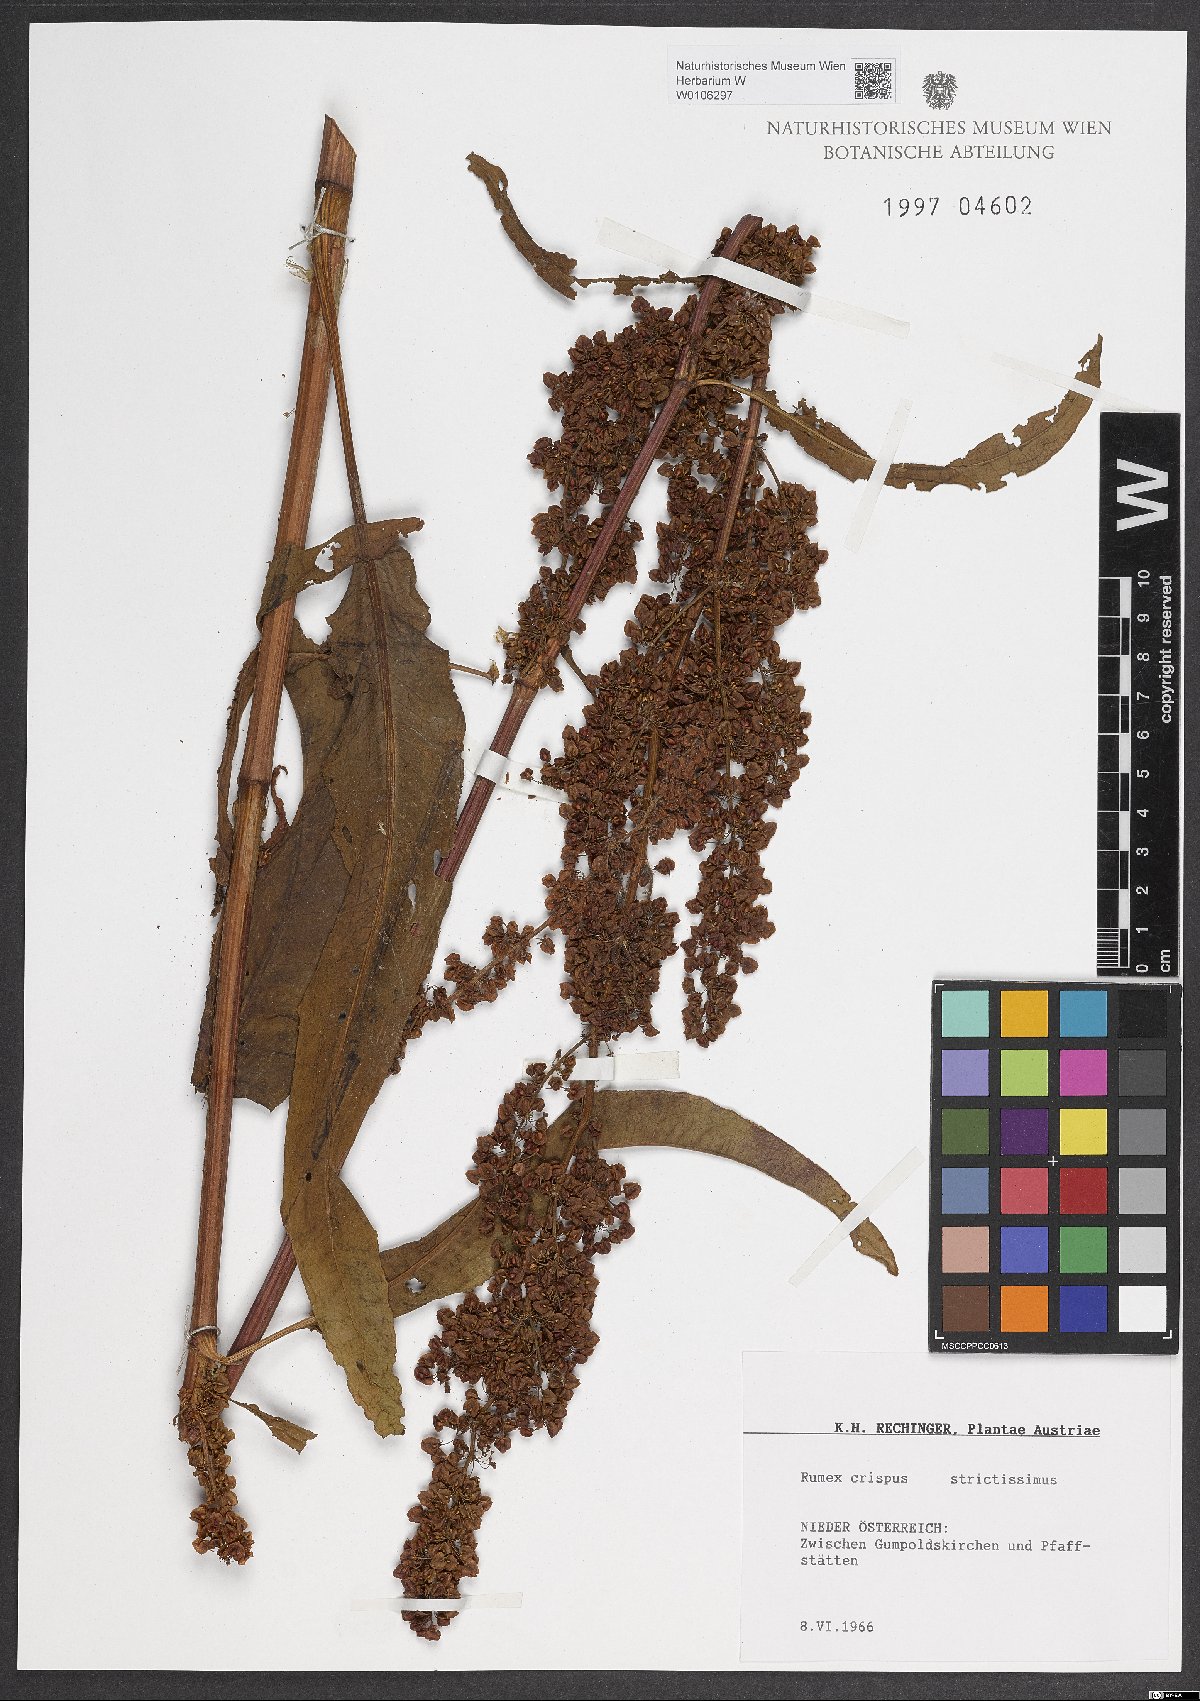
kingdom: Plantae
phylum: Tracheophyta
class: Magnoliopsida
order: Caryophyllales
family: Polygonaceae
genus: Rumex
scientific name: Rumex crispus
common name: Curled dock
